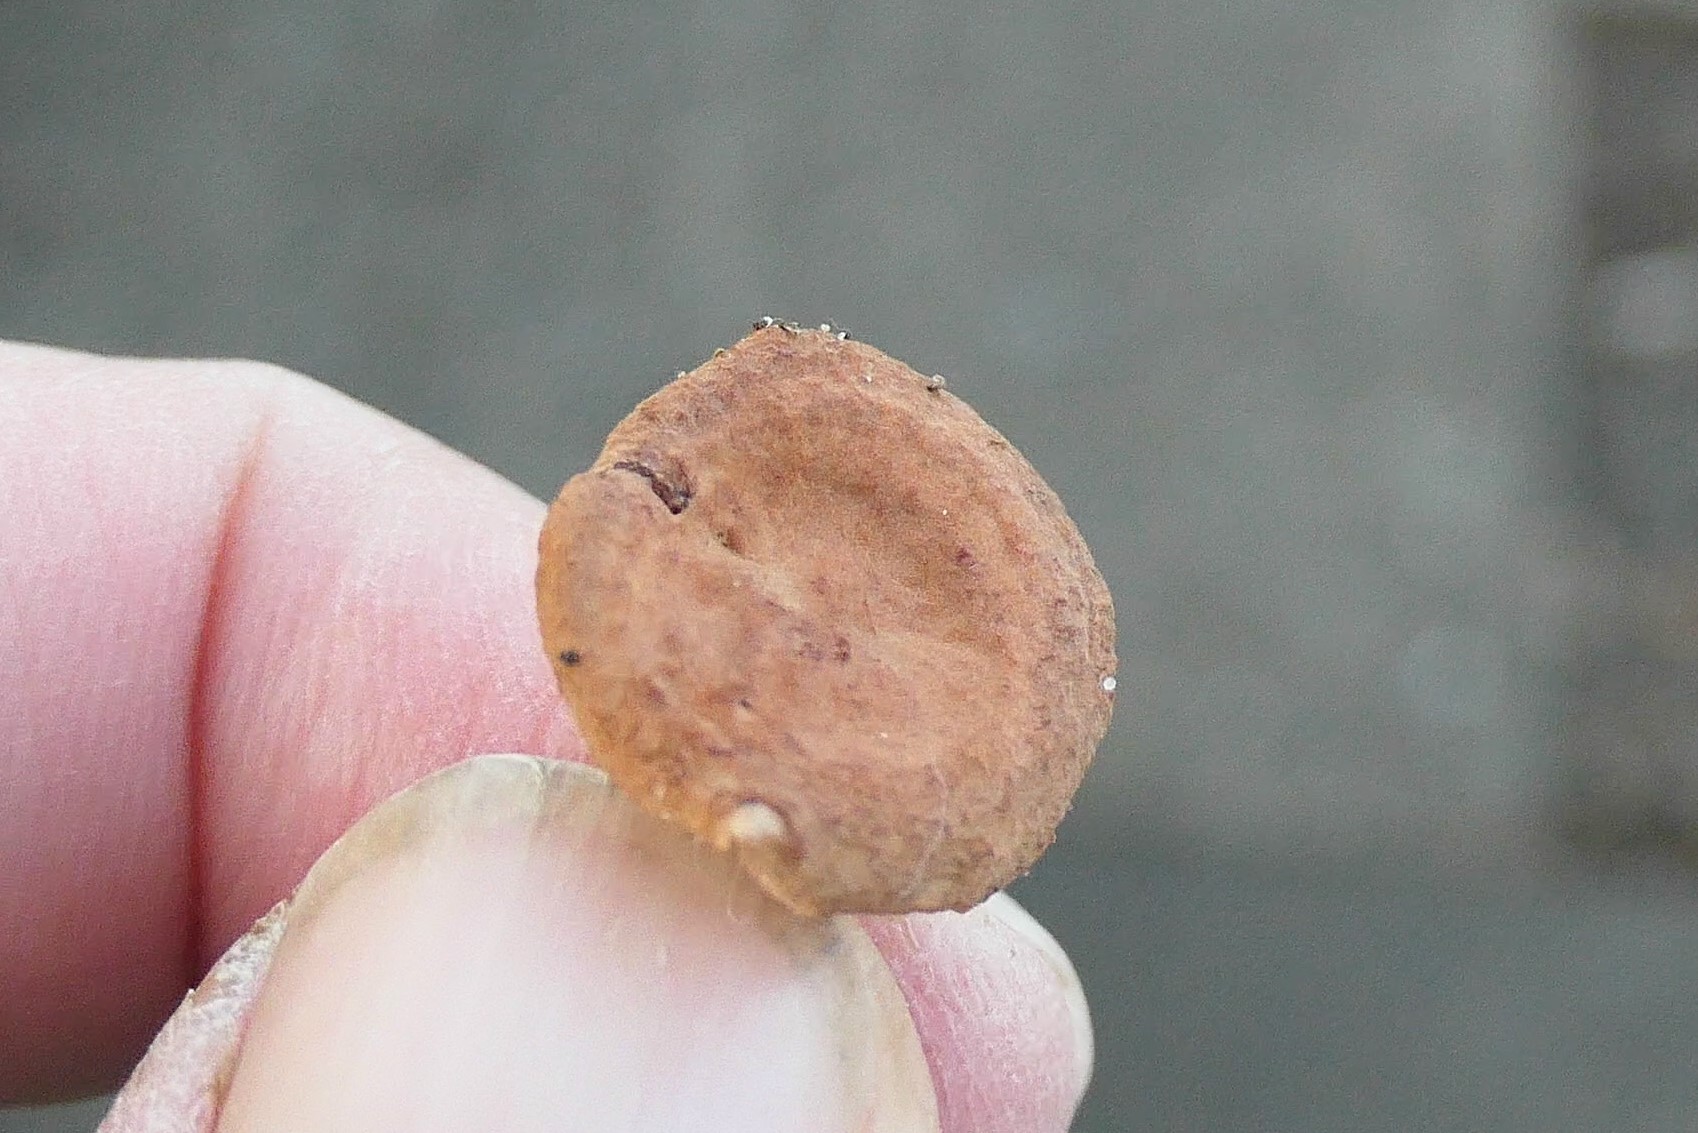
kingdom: Fungi
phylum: Basidiomycota
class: Agaricomycetes
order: Russulales
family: Russulaceae
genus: Lactarius
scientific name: Lactarius rostratus
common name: nubret mælkehat
